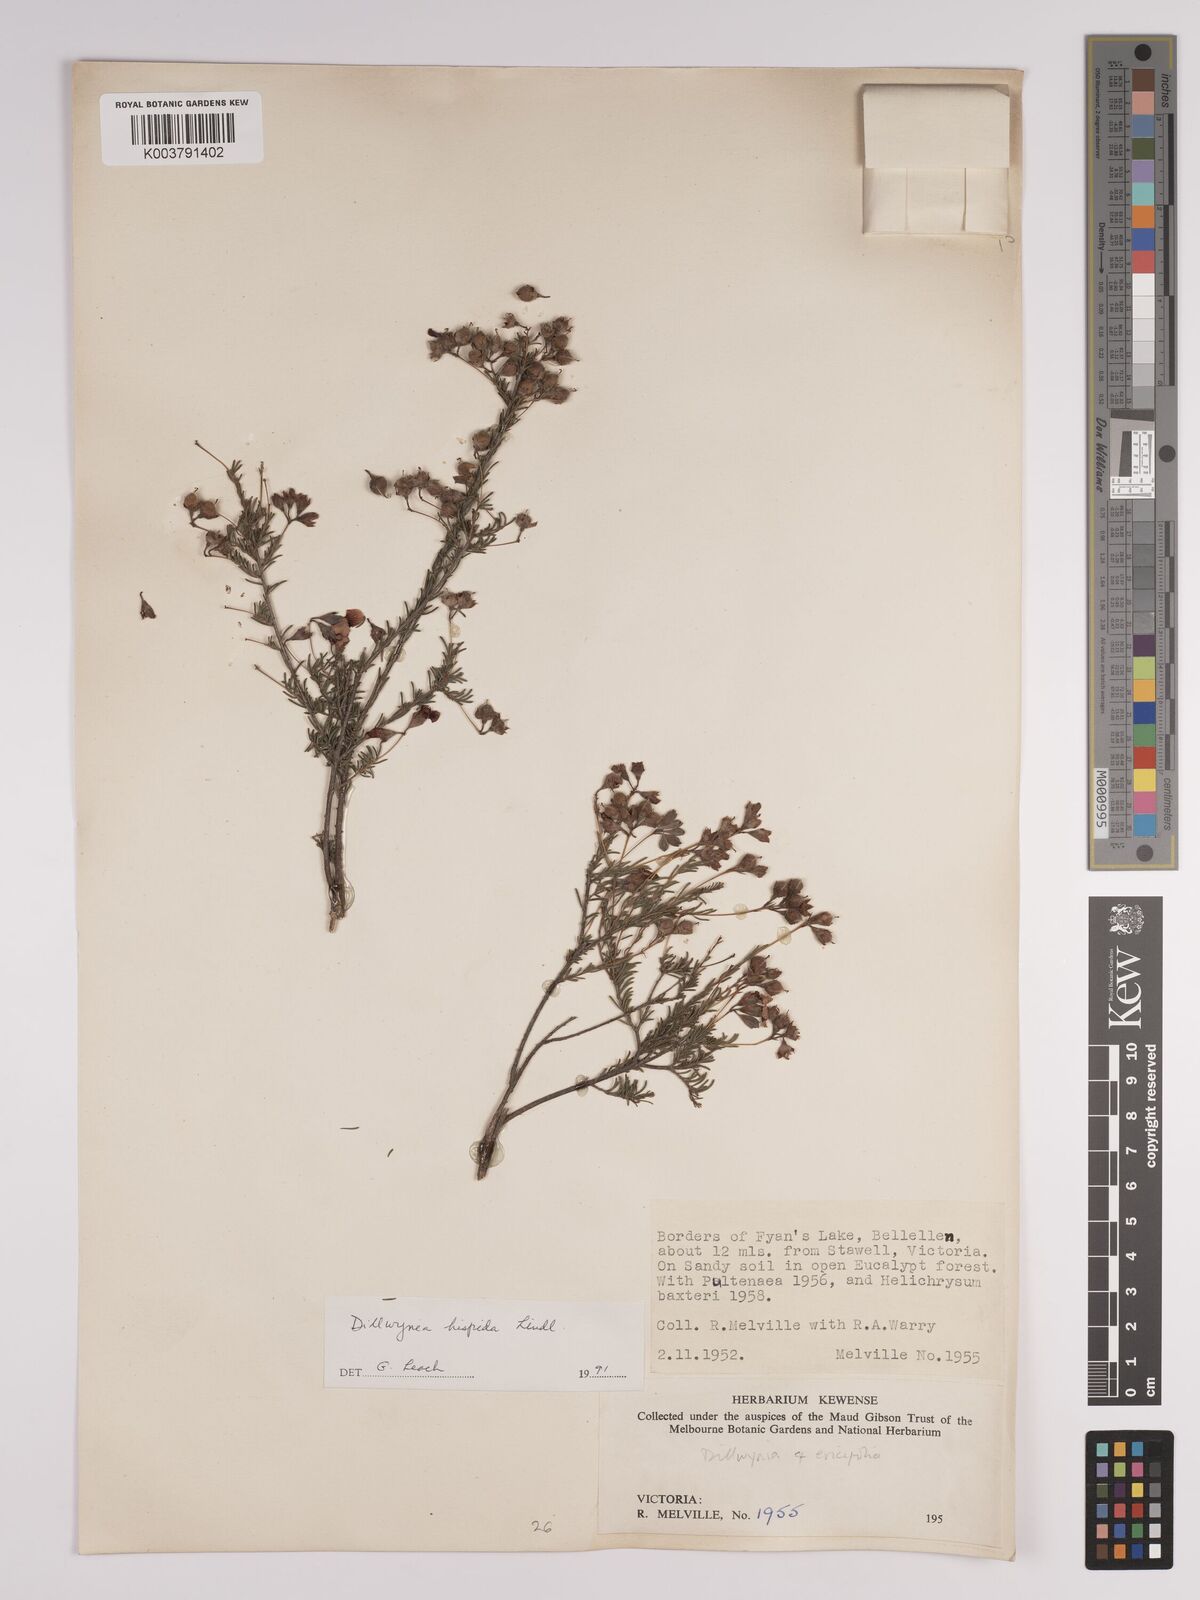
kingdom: Plantae
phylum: Tracheophyta
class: Magnoliopsida
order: Fabales
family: Fabaceae
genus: Dillwynia
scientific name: Dillwynia hispida
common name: Red parrot-pea
